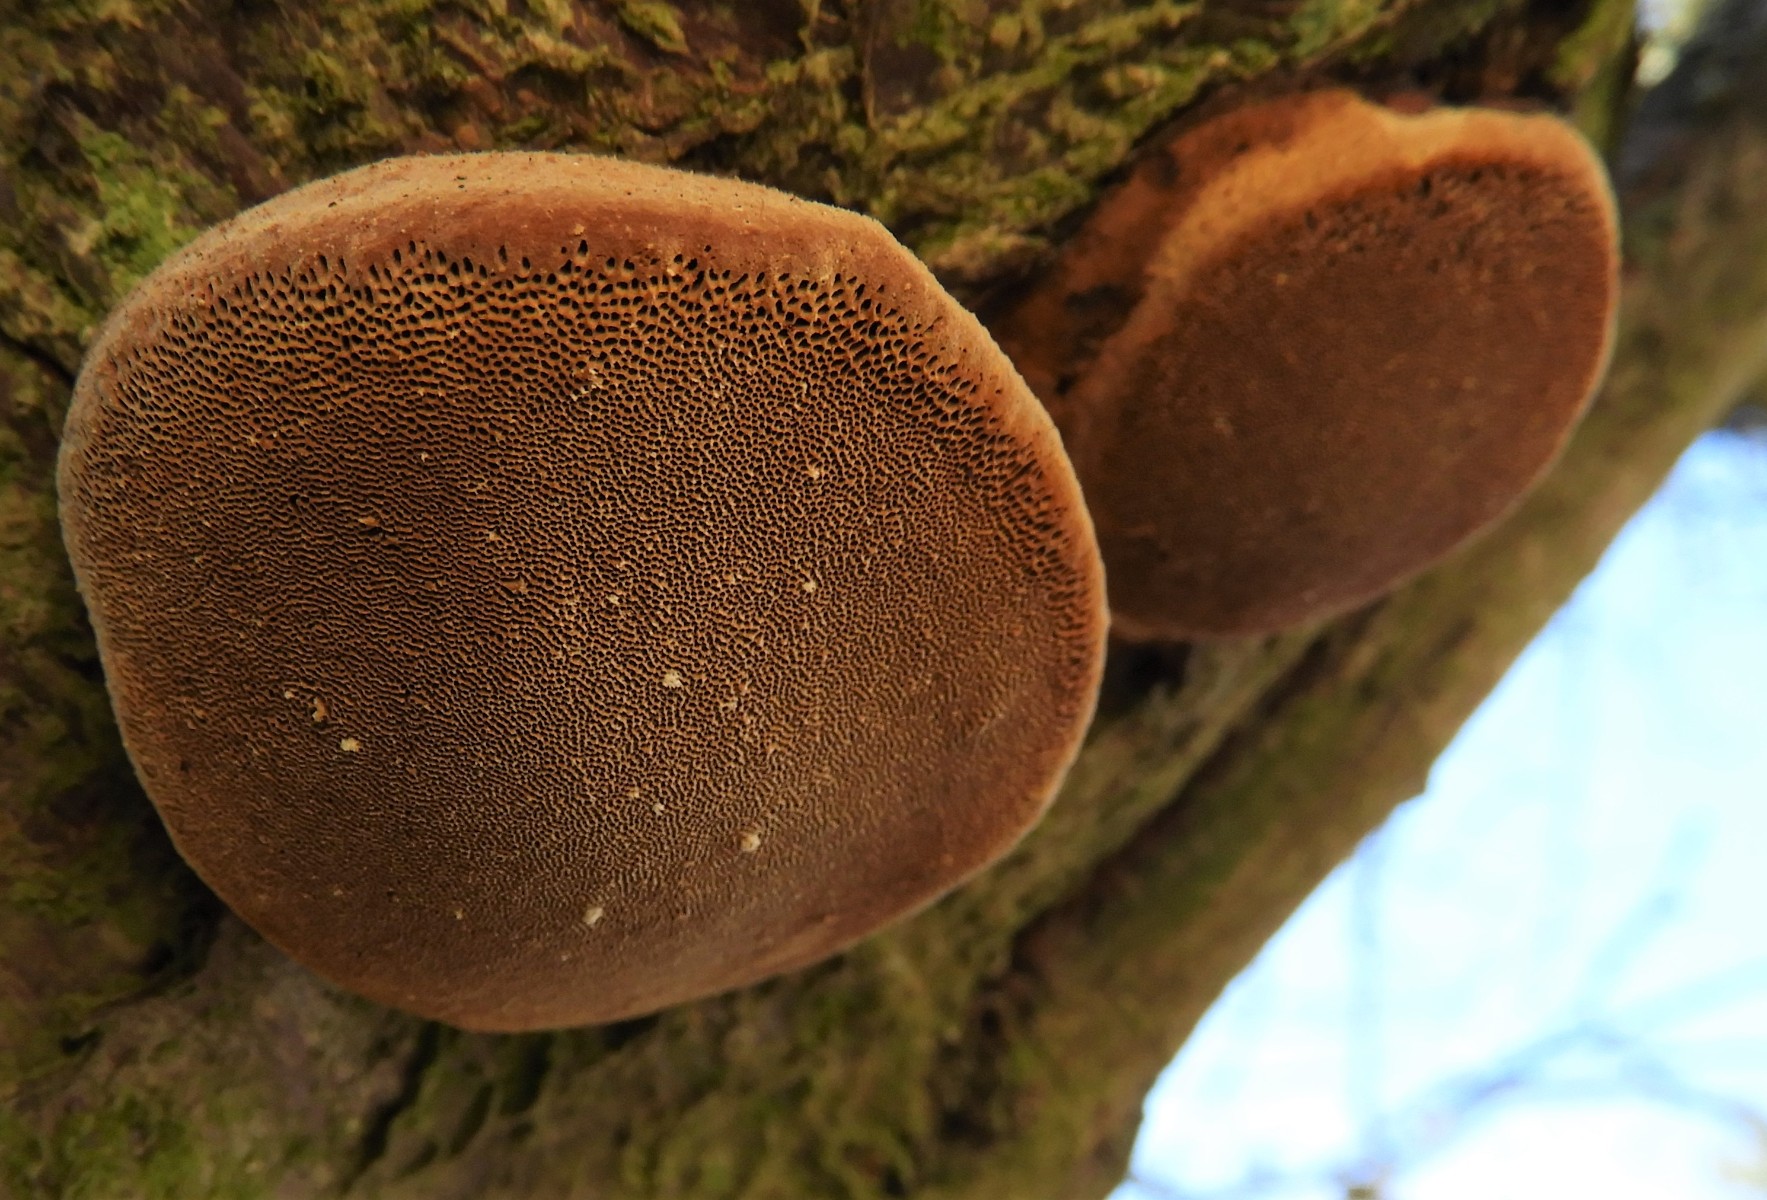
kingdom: Fungi
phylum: Basidiomycota
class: Agaricomycetes
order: Hymenochaetales
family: Hymenochaetaceae
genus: Phellinus
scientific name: Phellinus pomaceus
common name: blomme-ildporesvamp
